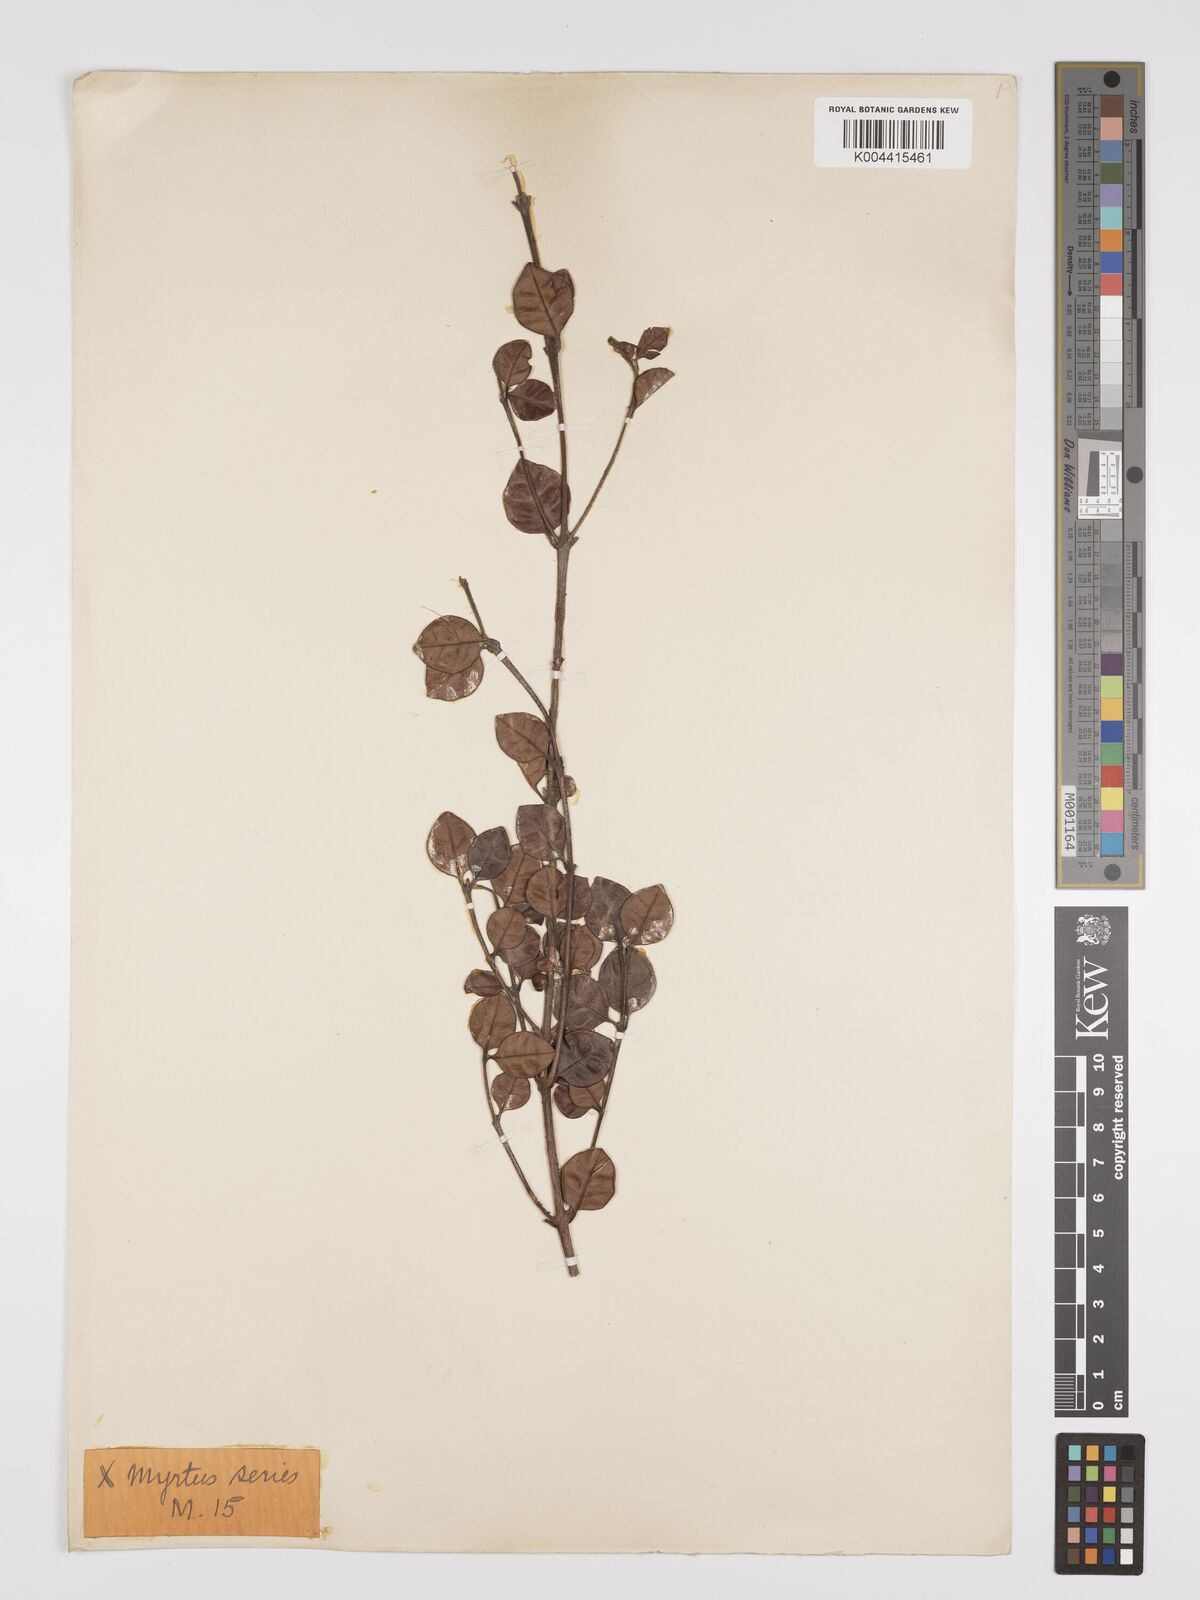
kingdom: Plantae
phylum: Tracheophyta
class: Magnoliopsida
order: Myrtales
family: Myrtaceae
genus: Lophomyrtus
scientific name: Lophomyrtus bullata
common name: Rama rama
